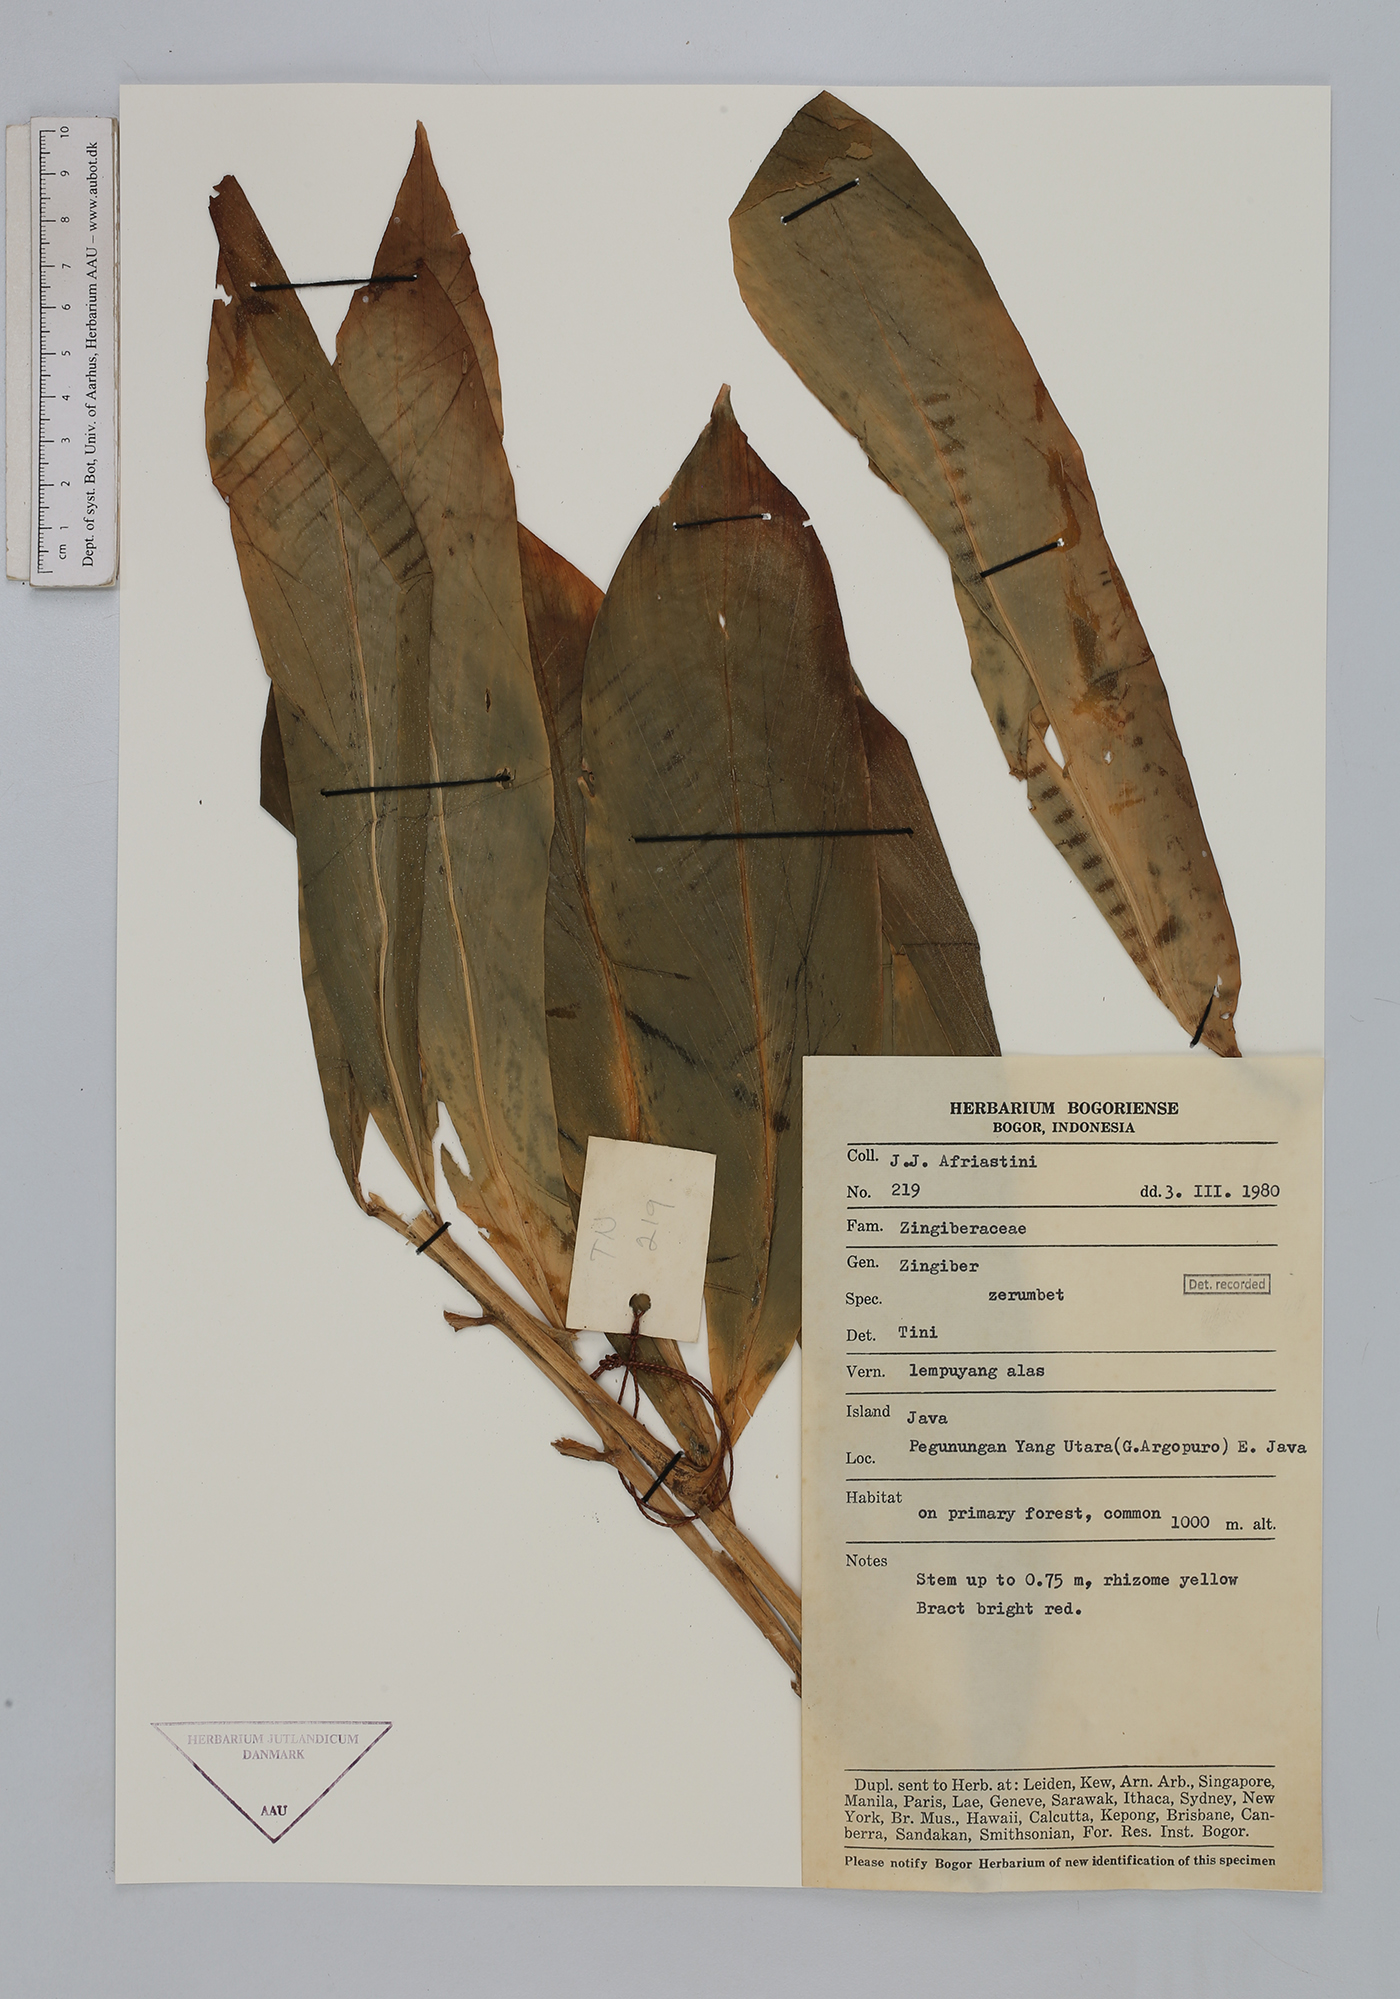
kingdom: Plantae
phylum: Tracheophyta
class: Liliopsida
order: Zingiberales
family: Zingiberaceae
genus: Zingiber
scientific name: Zingiber zerumbet
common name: Bitter ginger
